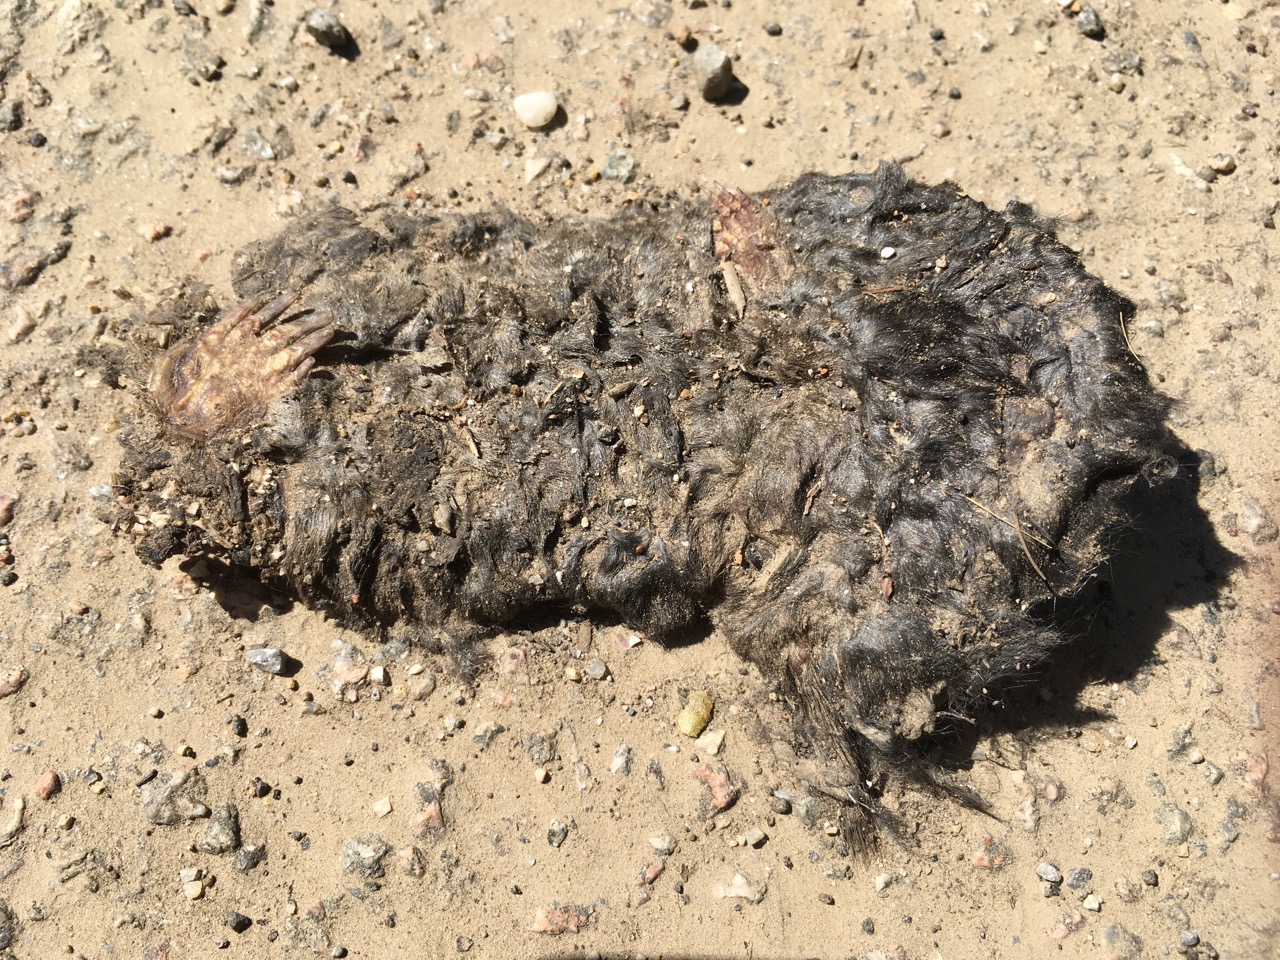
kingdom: Animalia
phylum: Chordata
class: Mammalia
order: Soricomorpha
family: Talpidae
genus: Talpa
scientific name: Talpa europaea
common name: European mole
